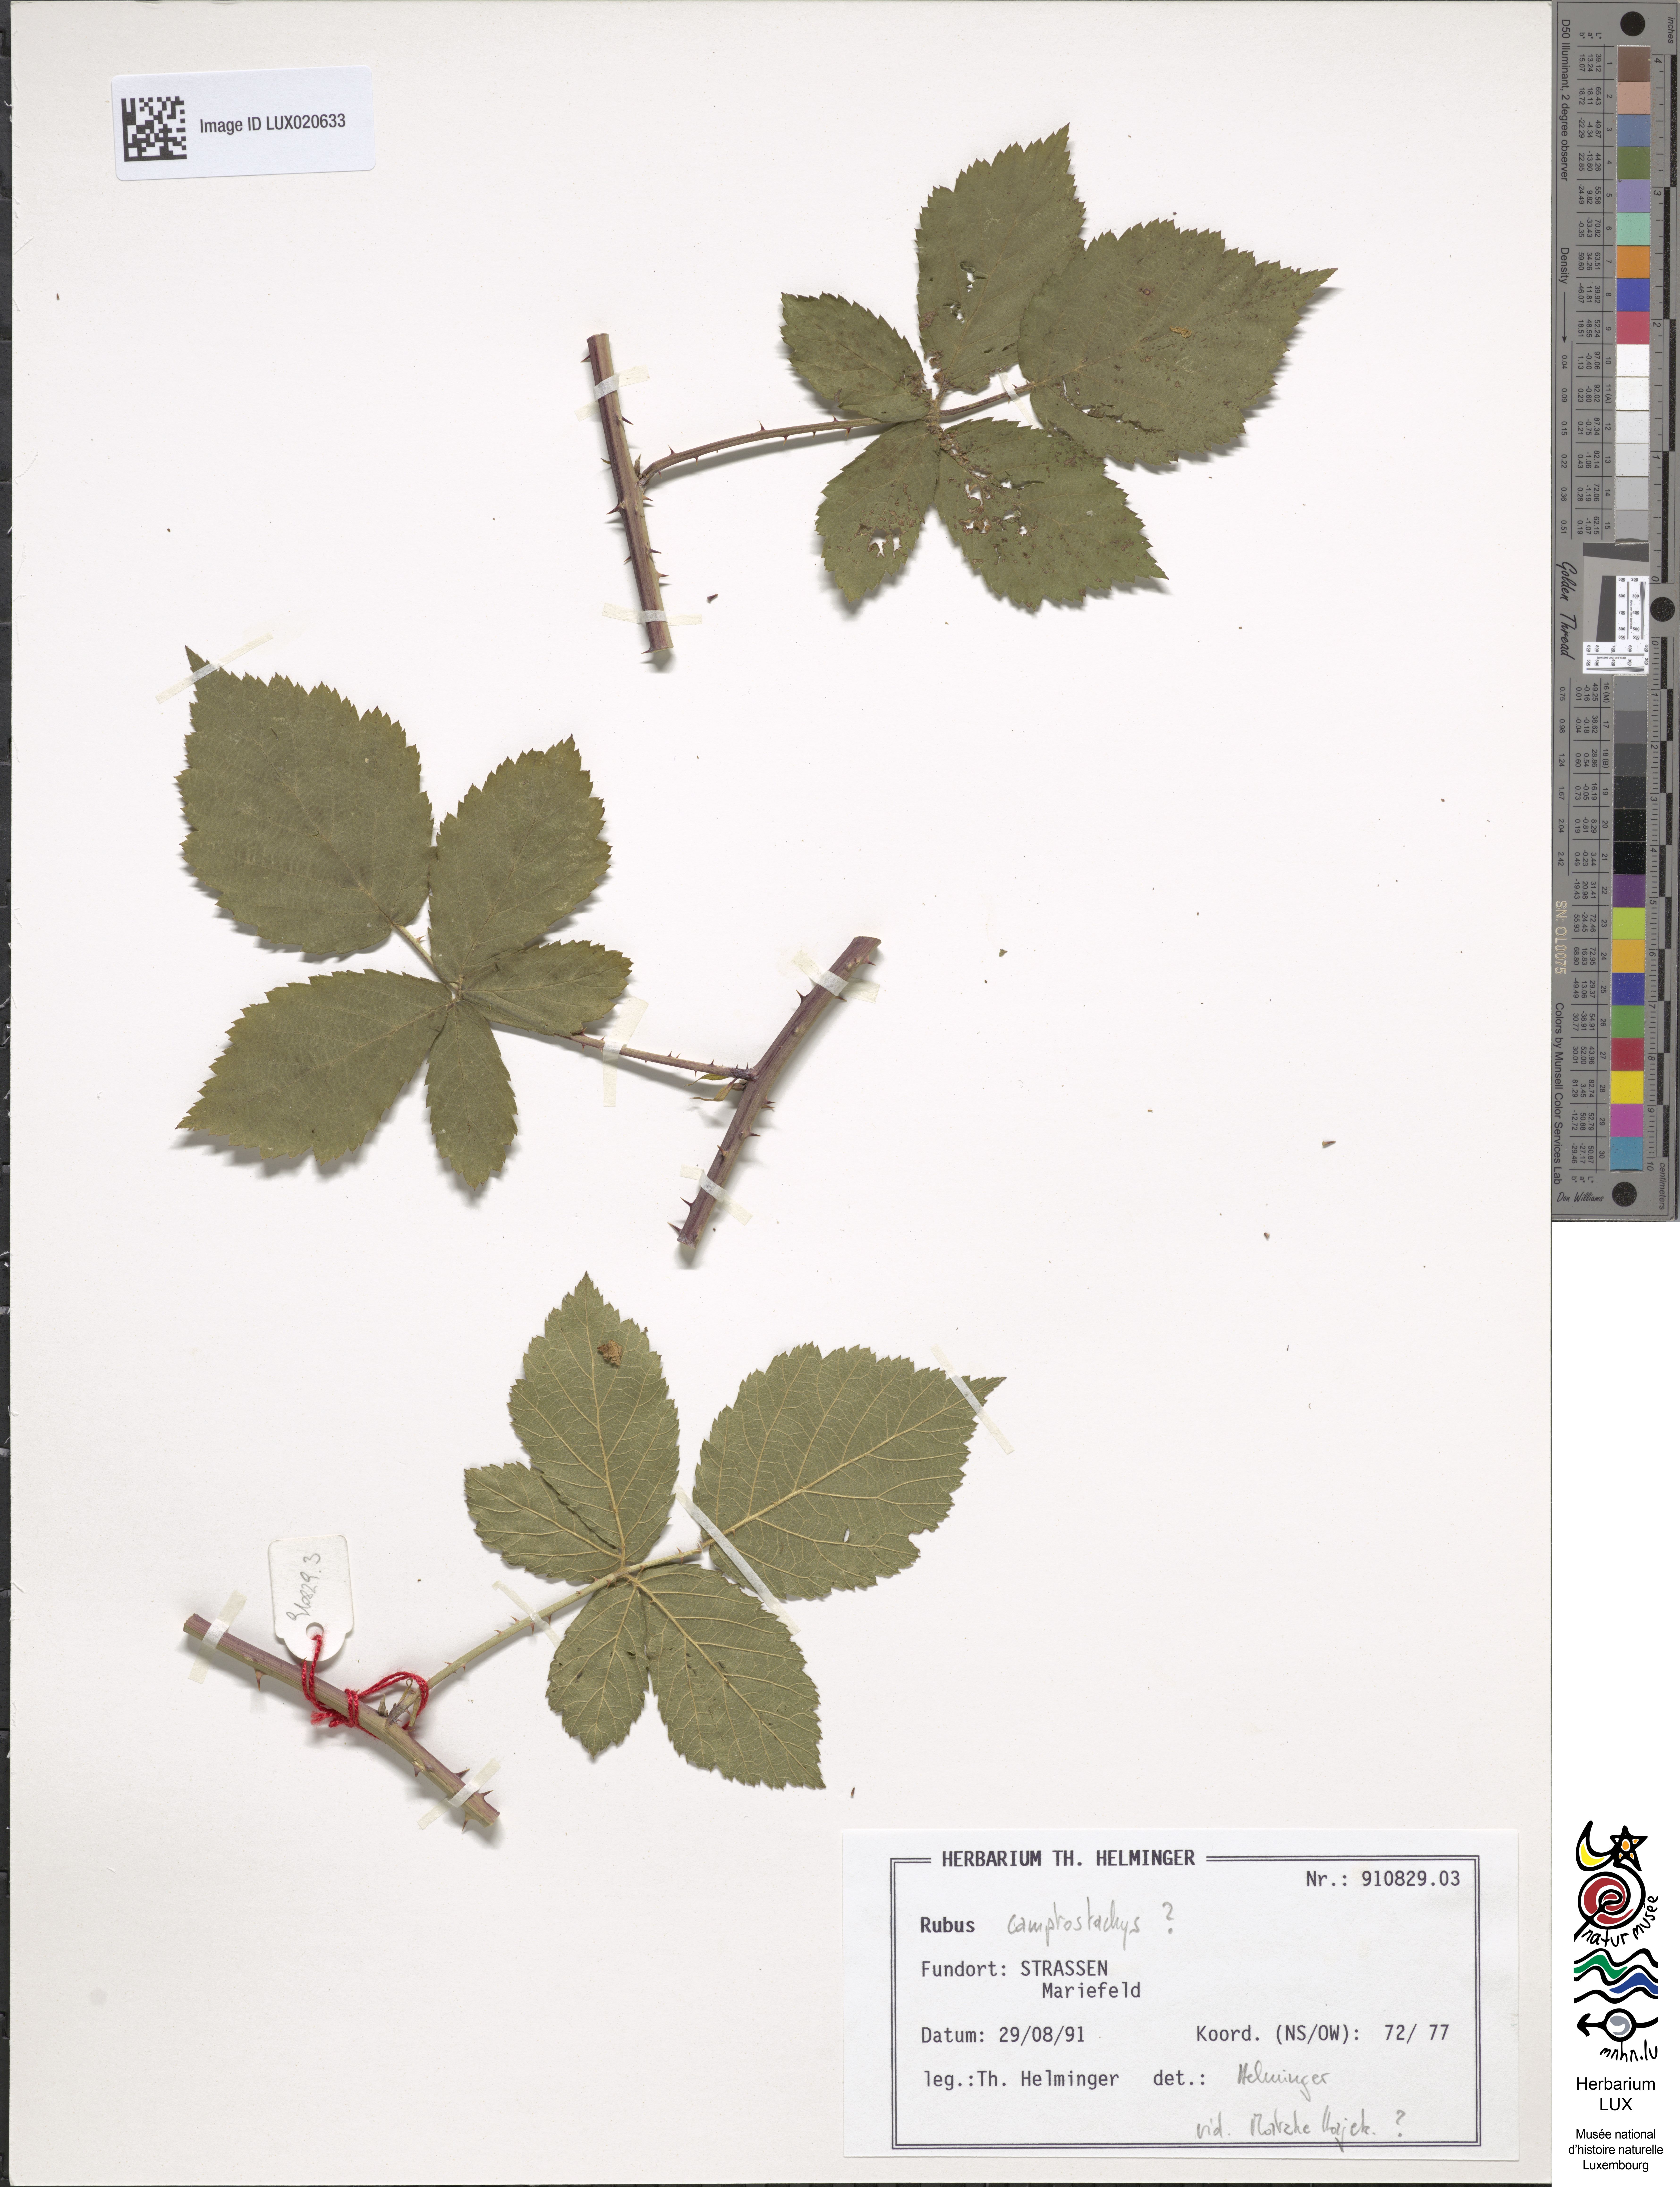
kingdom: Plantae
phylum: Tracheophyta
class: Magnoliopsida
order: Rosales
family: Rosaceae
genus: Rubus
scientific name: Rubus
